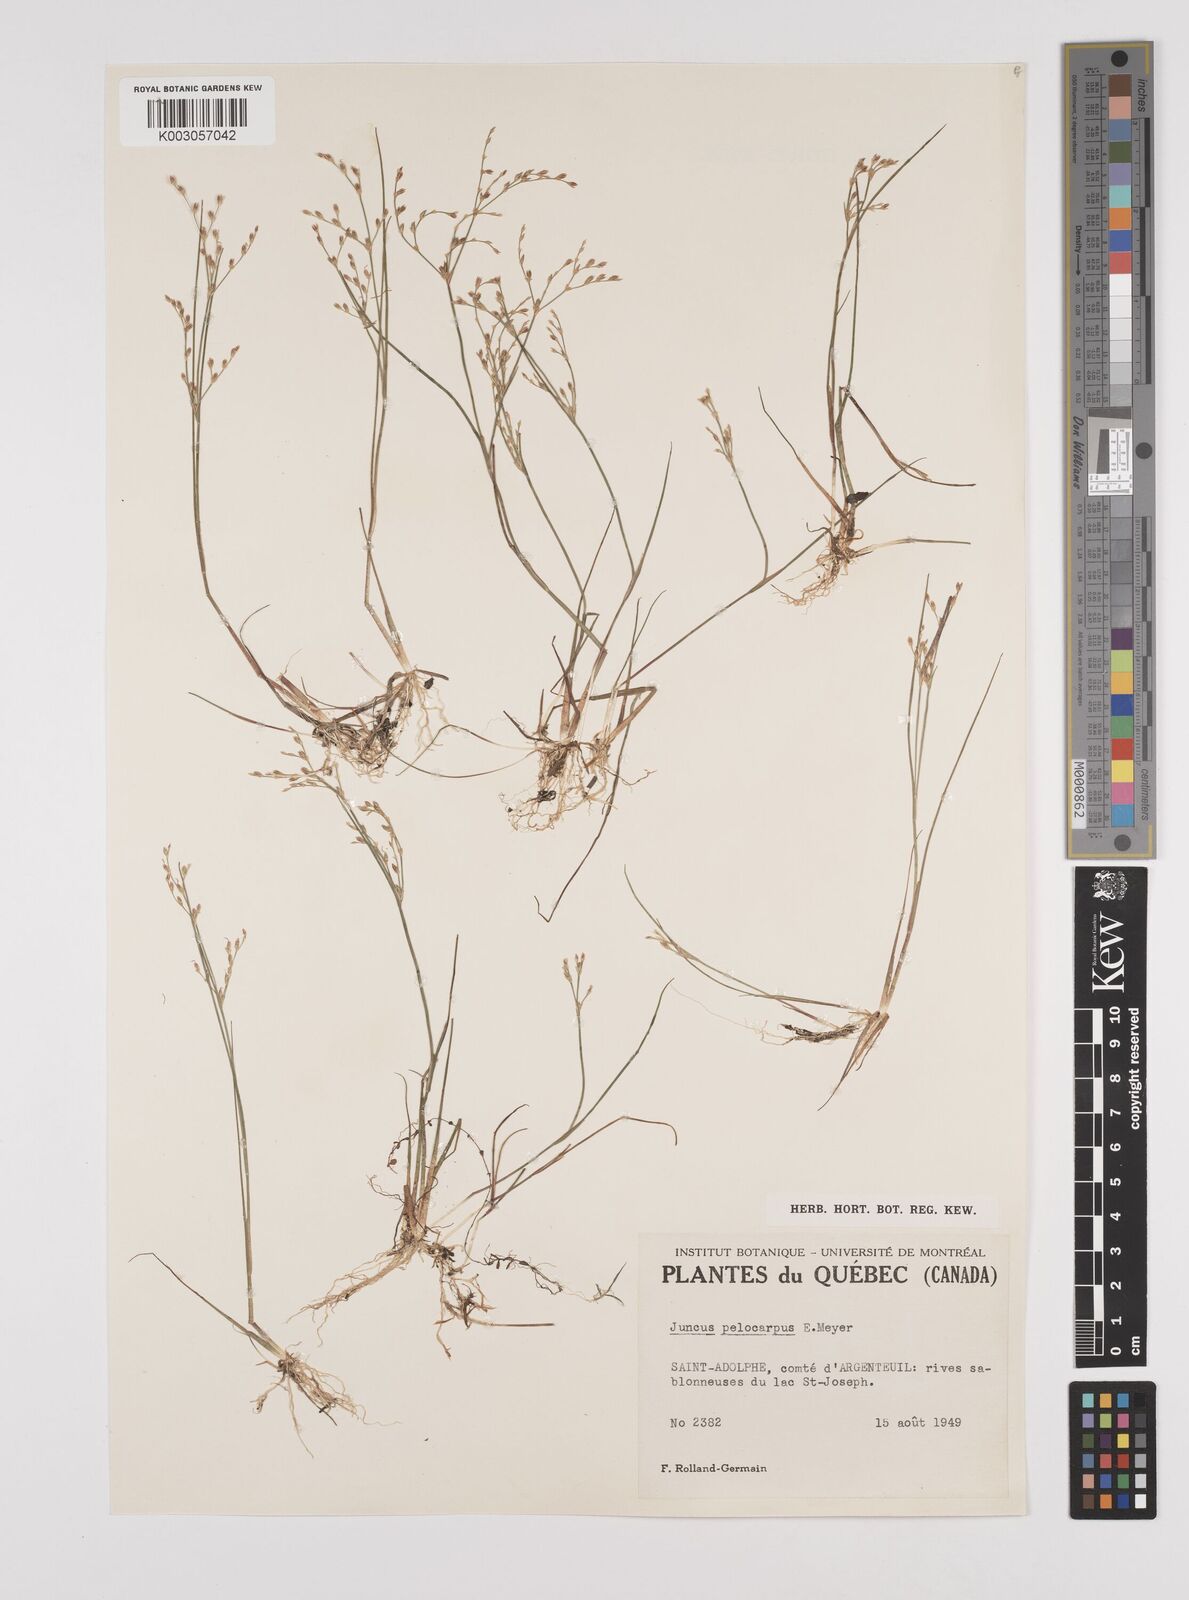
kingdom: Plantae
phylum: Tracheophyta
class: Liliopsida
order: Poales
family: Juncaceae
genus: Juncus
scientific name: Juncus pelocarpus
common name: Brown-fruited rush
